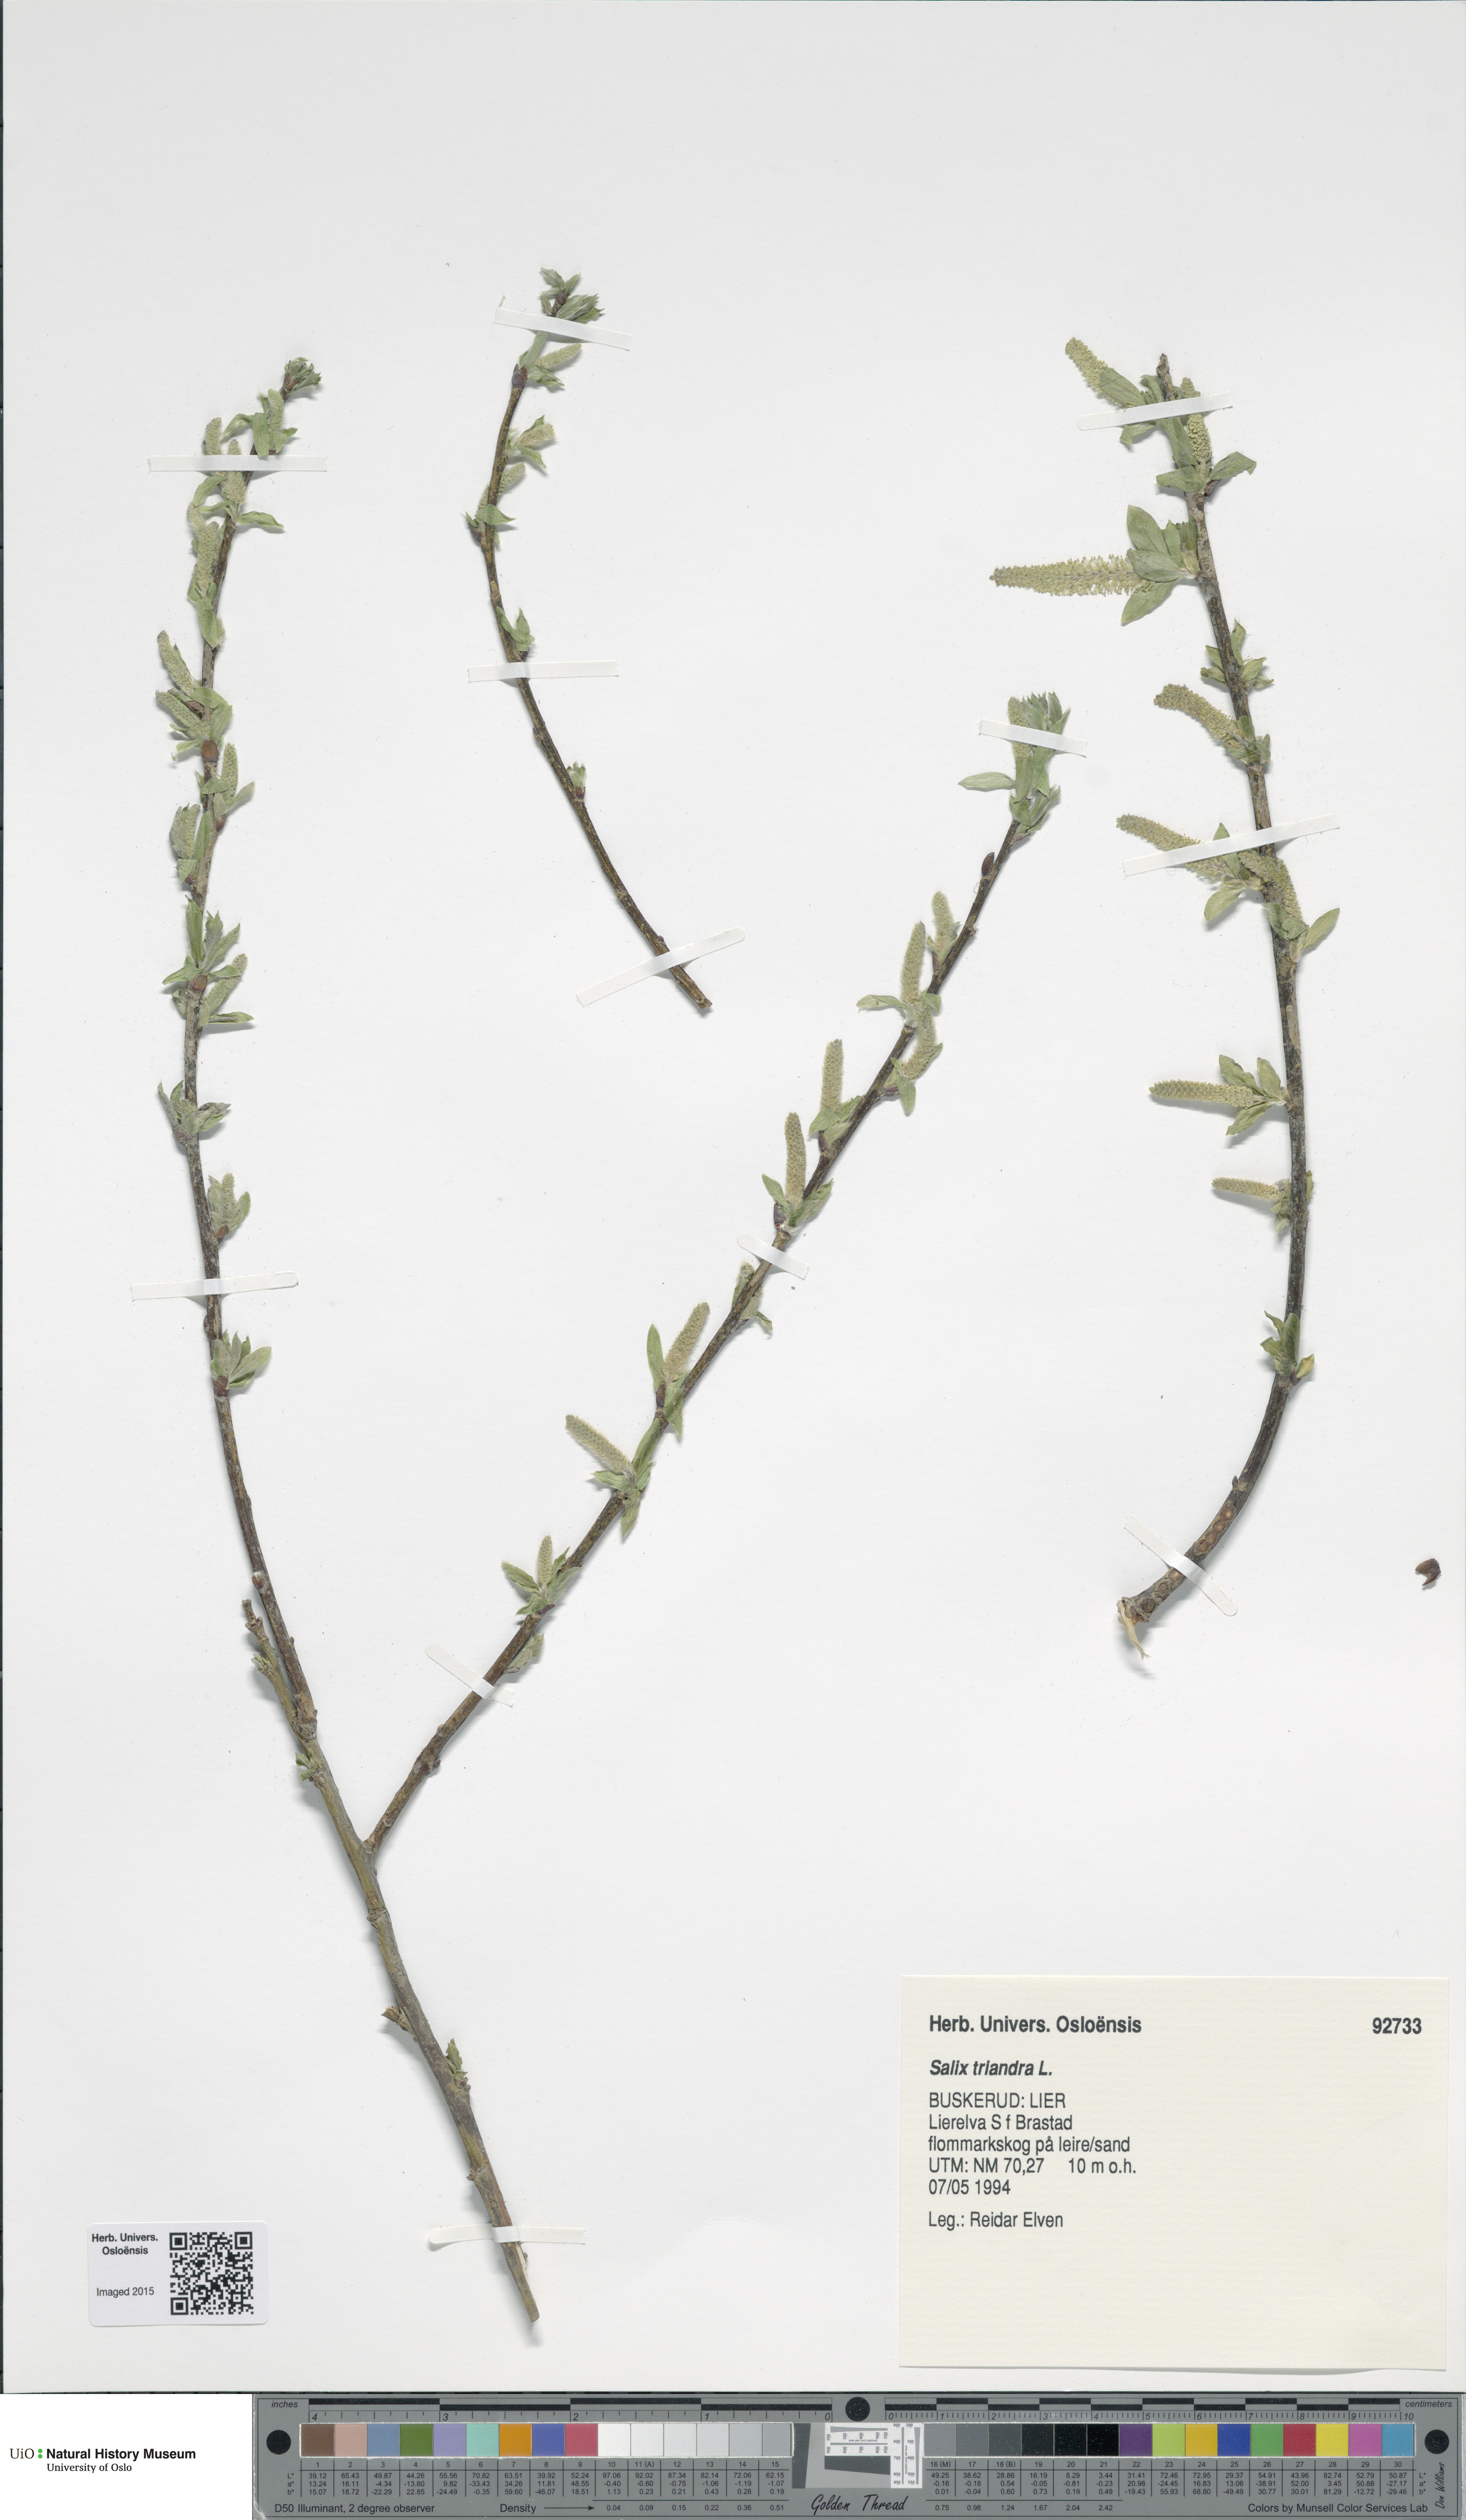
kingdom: Plantae
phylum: Tracheophyta
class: Magnoliopsida
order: Malpighiales
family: Salicaceae
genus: Salix
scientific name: Salix triandra
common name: Almond willow
